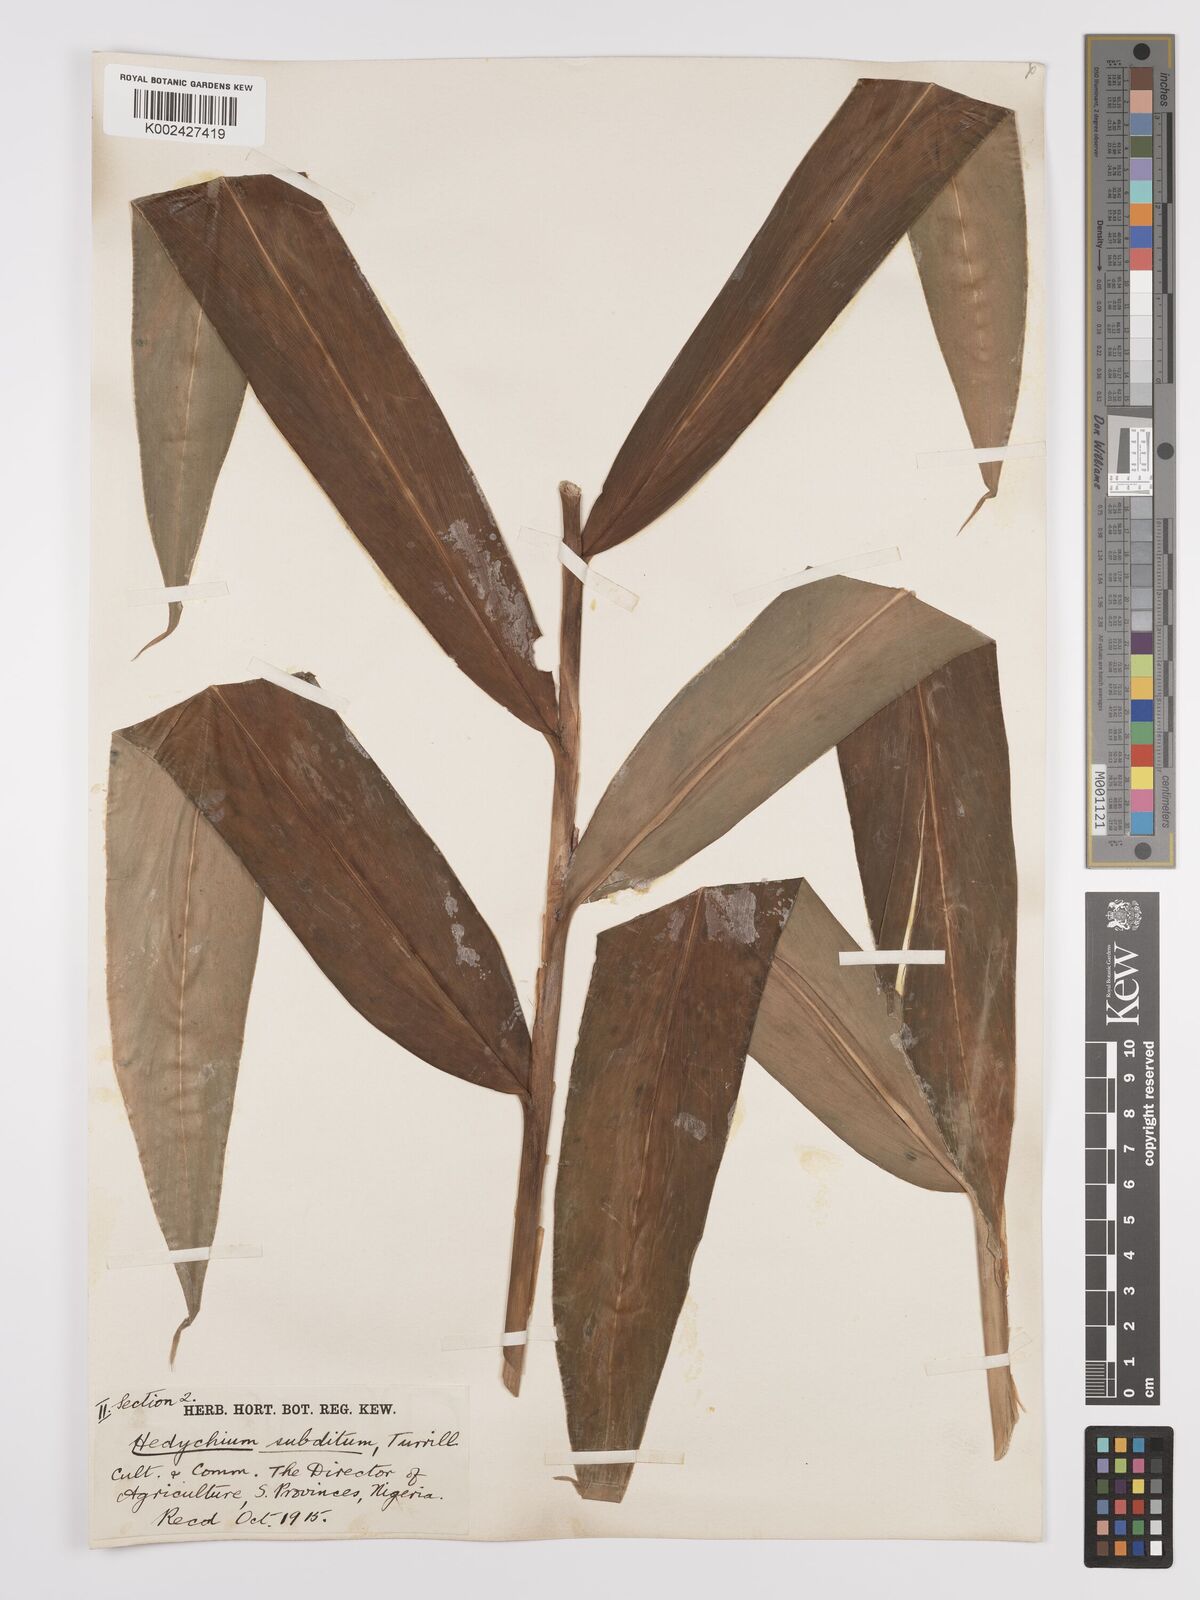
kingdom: Plantae
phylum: Tracheophyta
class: Liliopsida
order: Zingiberales
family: Zingiberaceae
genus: Hedychium
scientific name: Hedychium flavescens
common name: Yellow ginger
